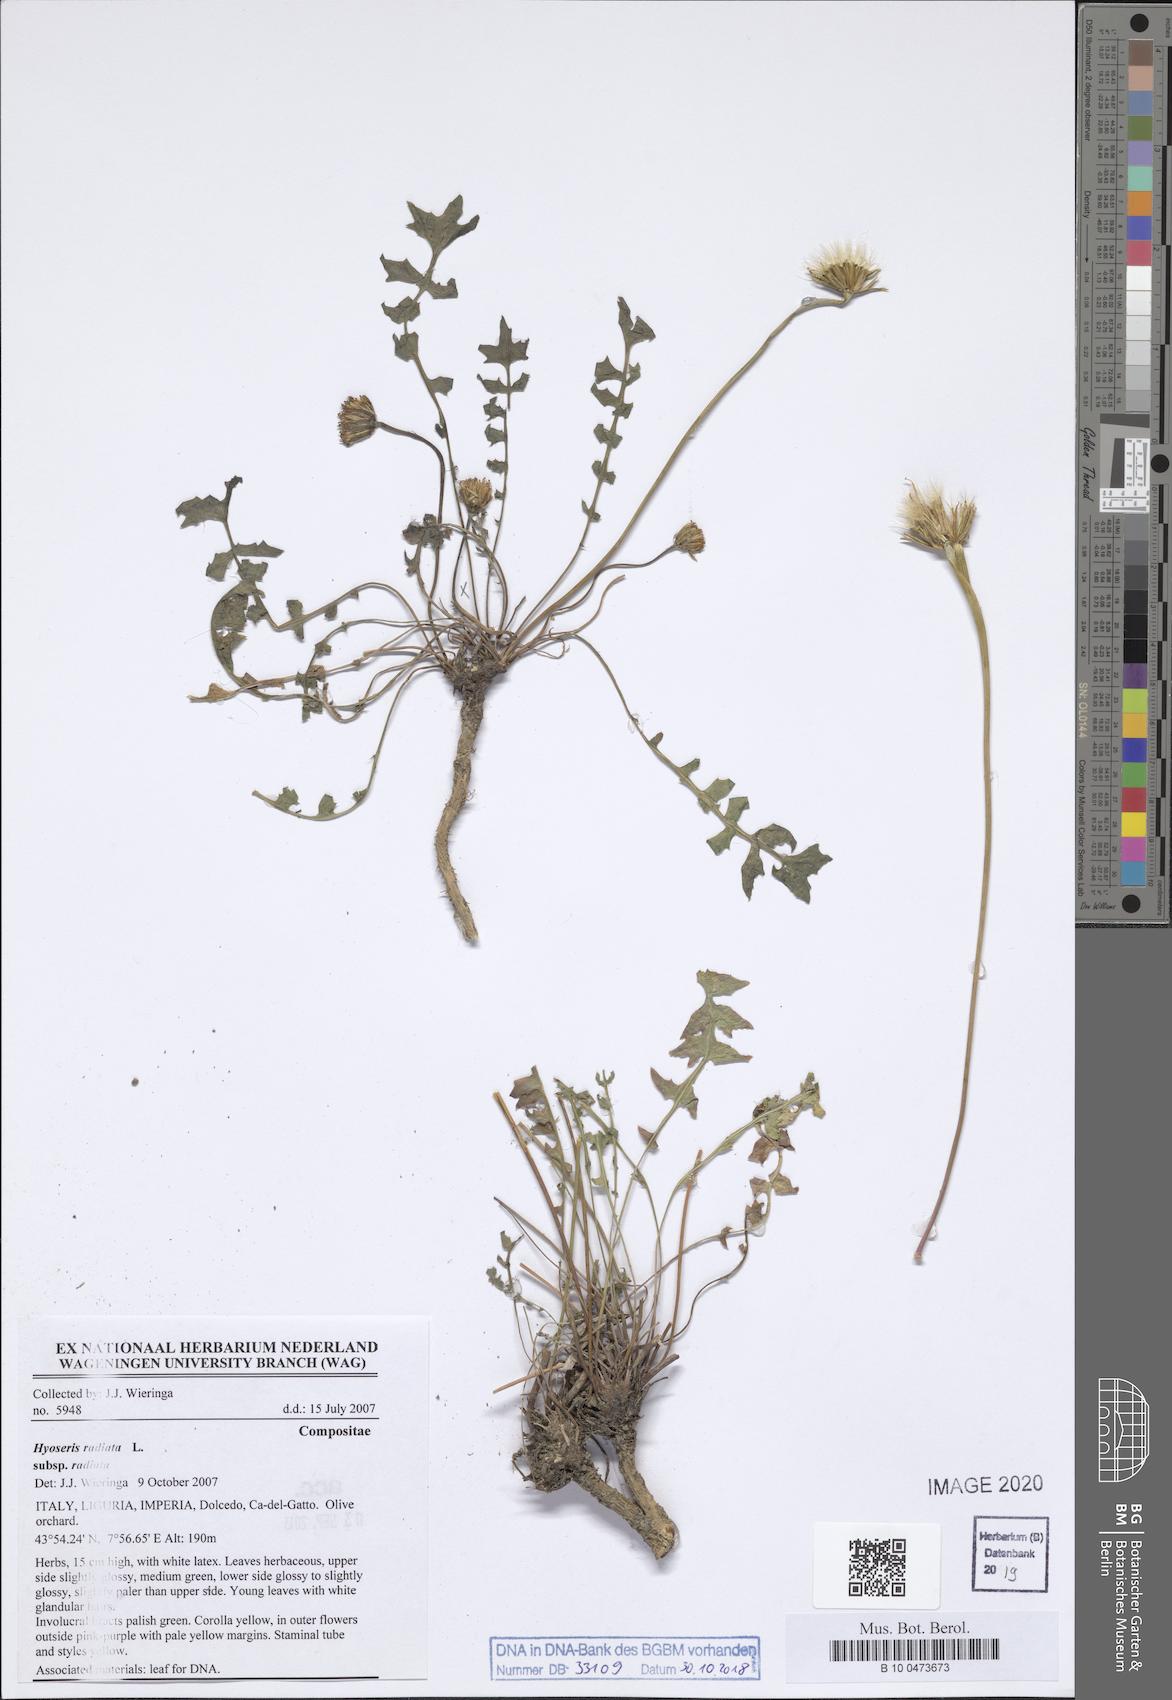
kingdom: Plantae
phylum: Tracheophyta
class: Magnoliopsida
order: Asterales
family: Asteraceae
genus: Hyoseris
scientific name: Hyoseris radiata
